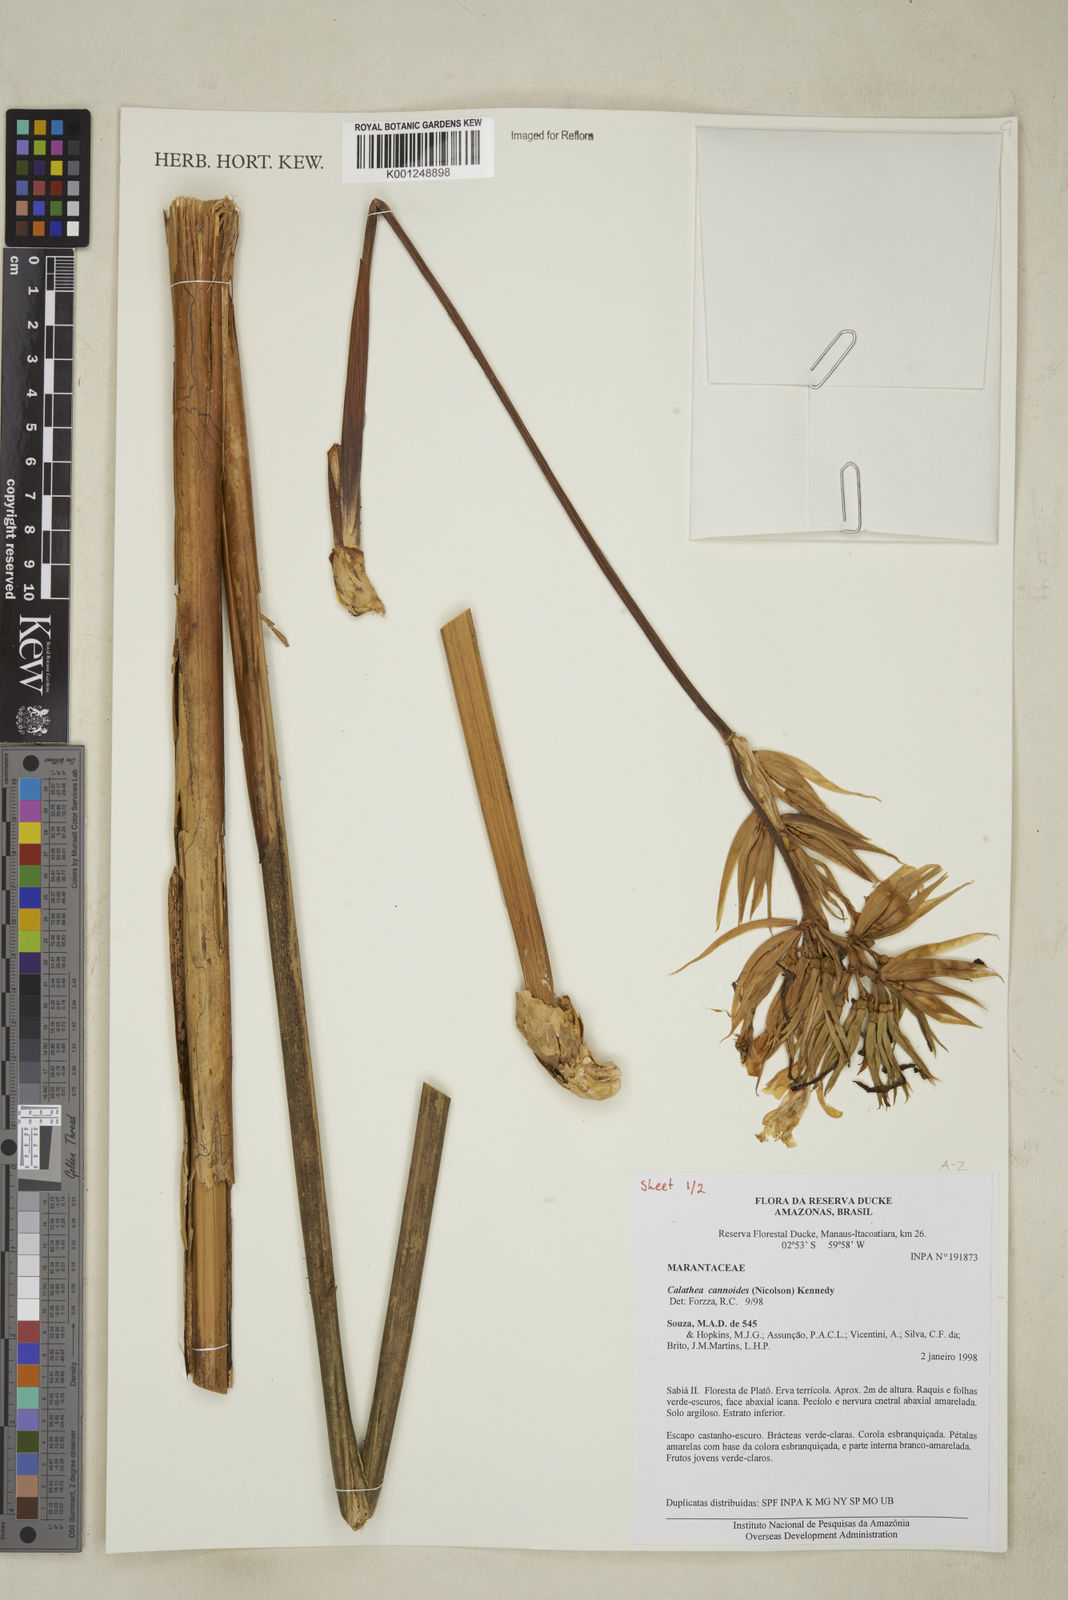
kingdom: Plantae
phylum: Tracheophyta
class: Liliopsida
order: Zingiberales
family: Marantaceae
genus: Goeppertia
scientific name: Goeppertia cannoides
